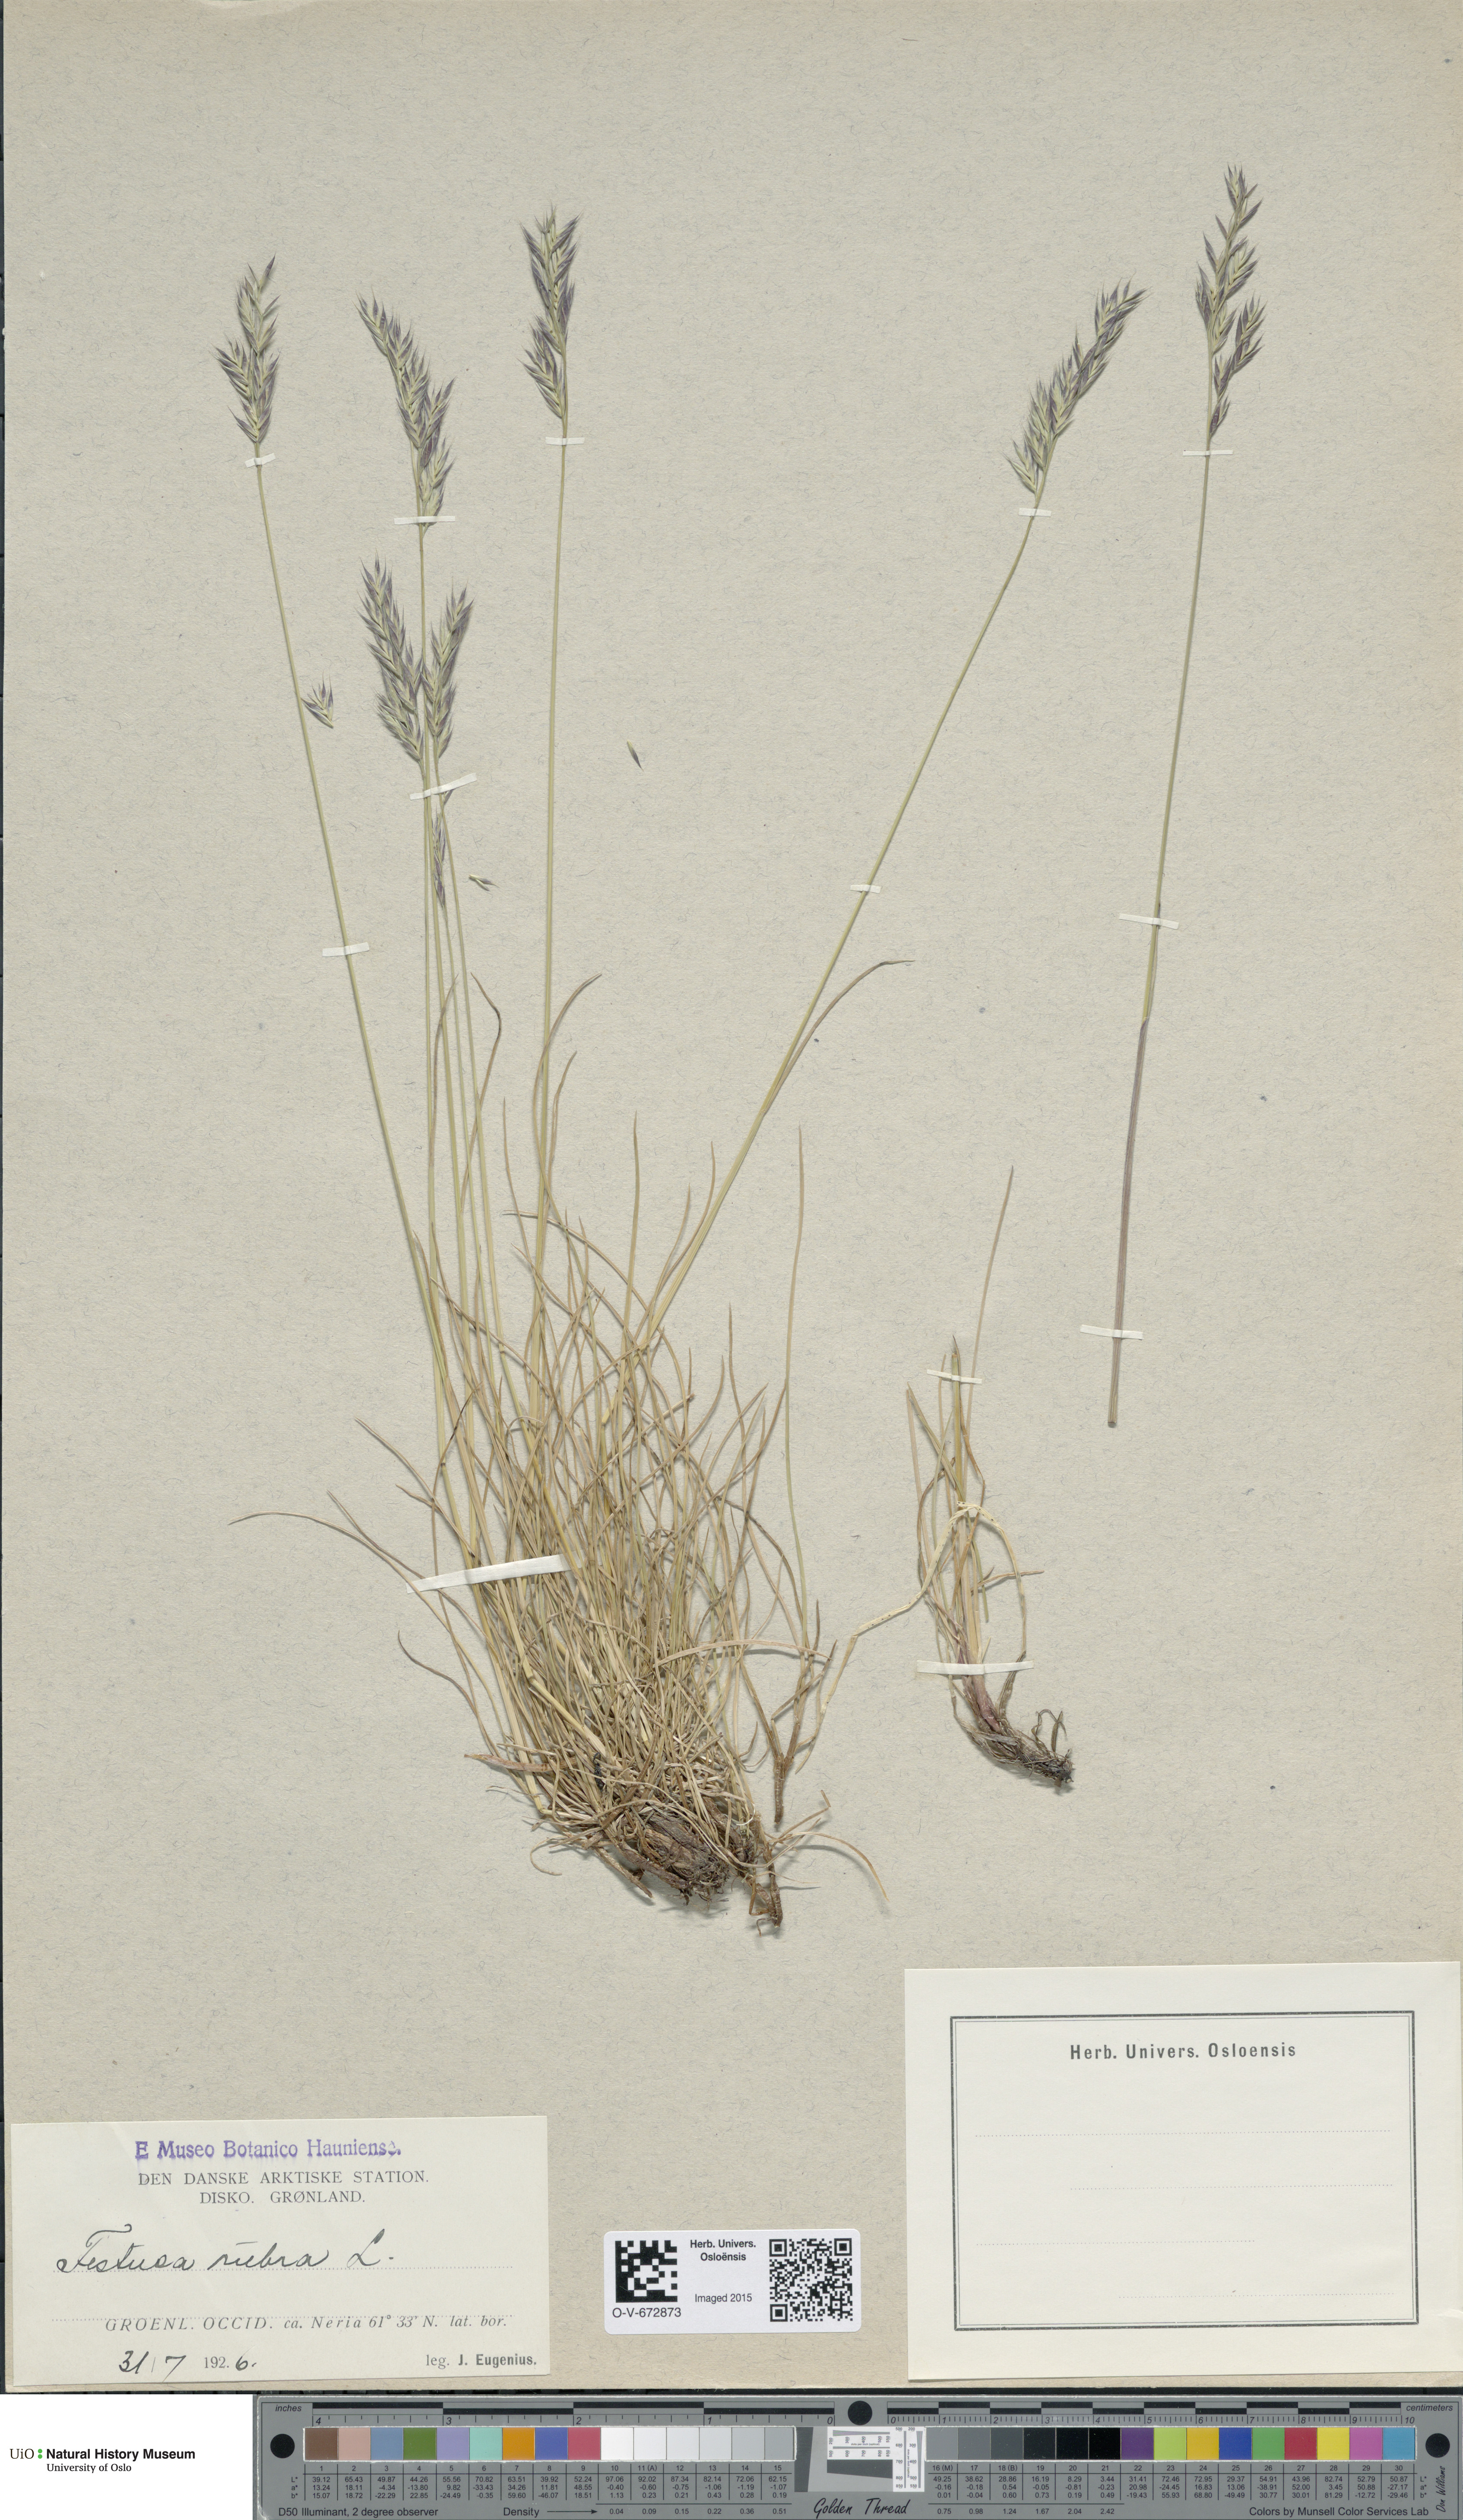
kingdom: Plantae
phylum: Tracheophyta
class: Liliopsida
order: Poales
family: Poaceae
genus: Festuca
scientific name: Festuca rubra
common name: Red fescue
